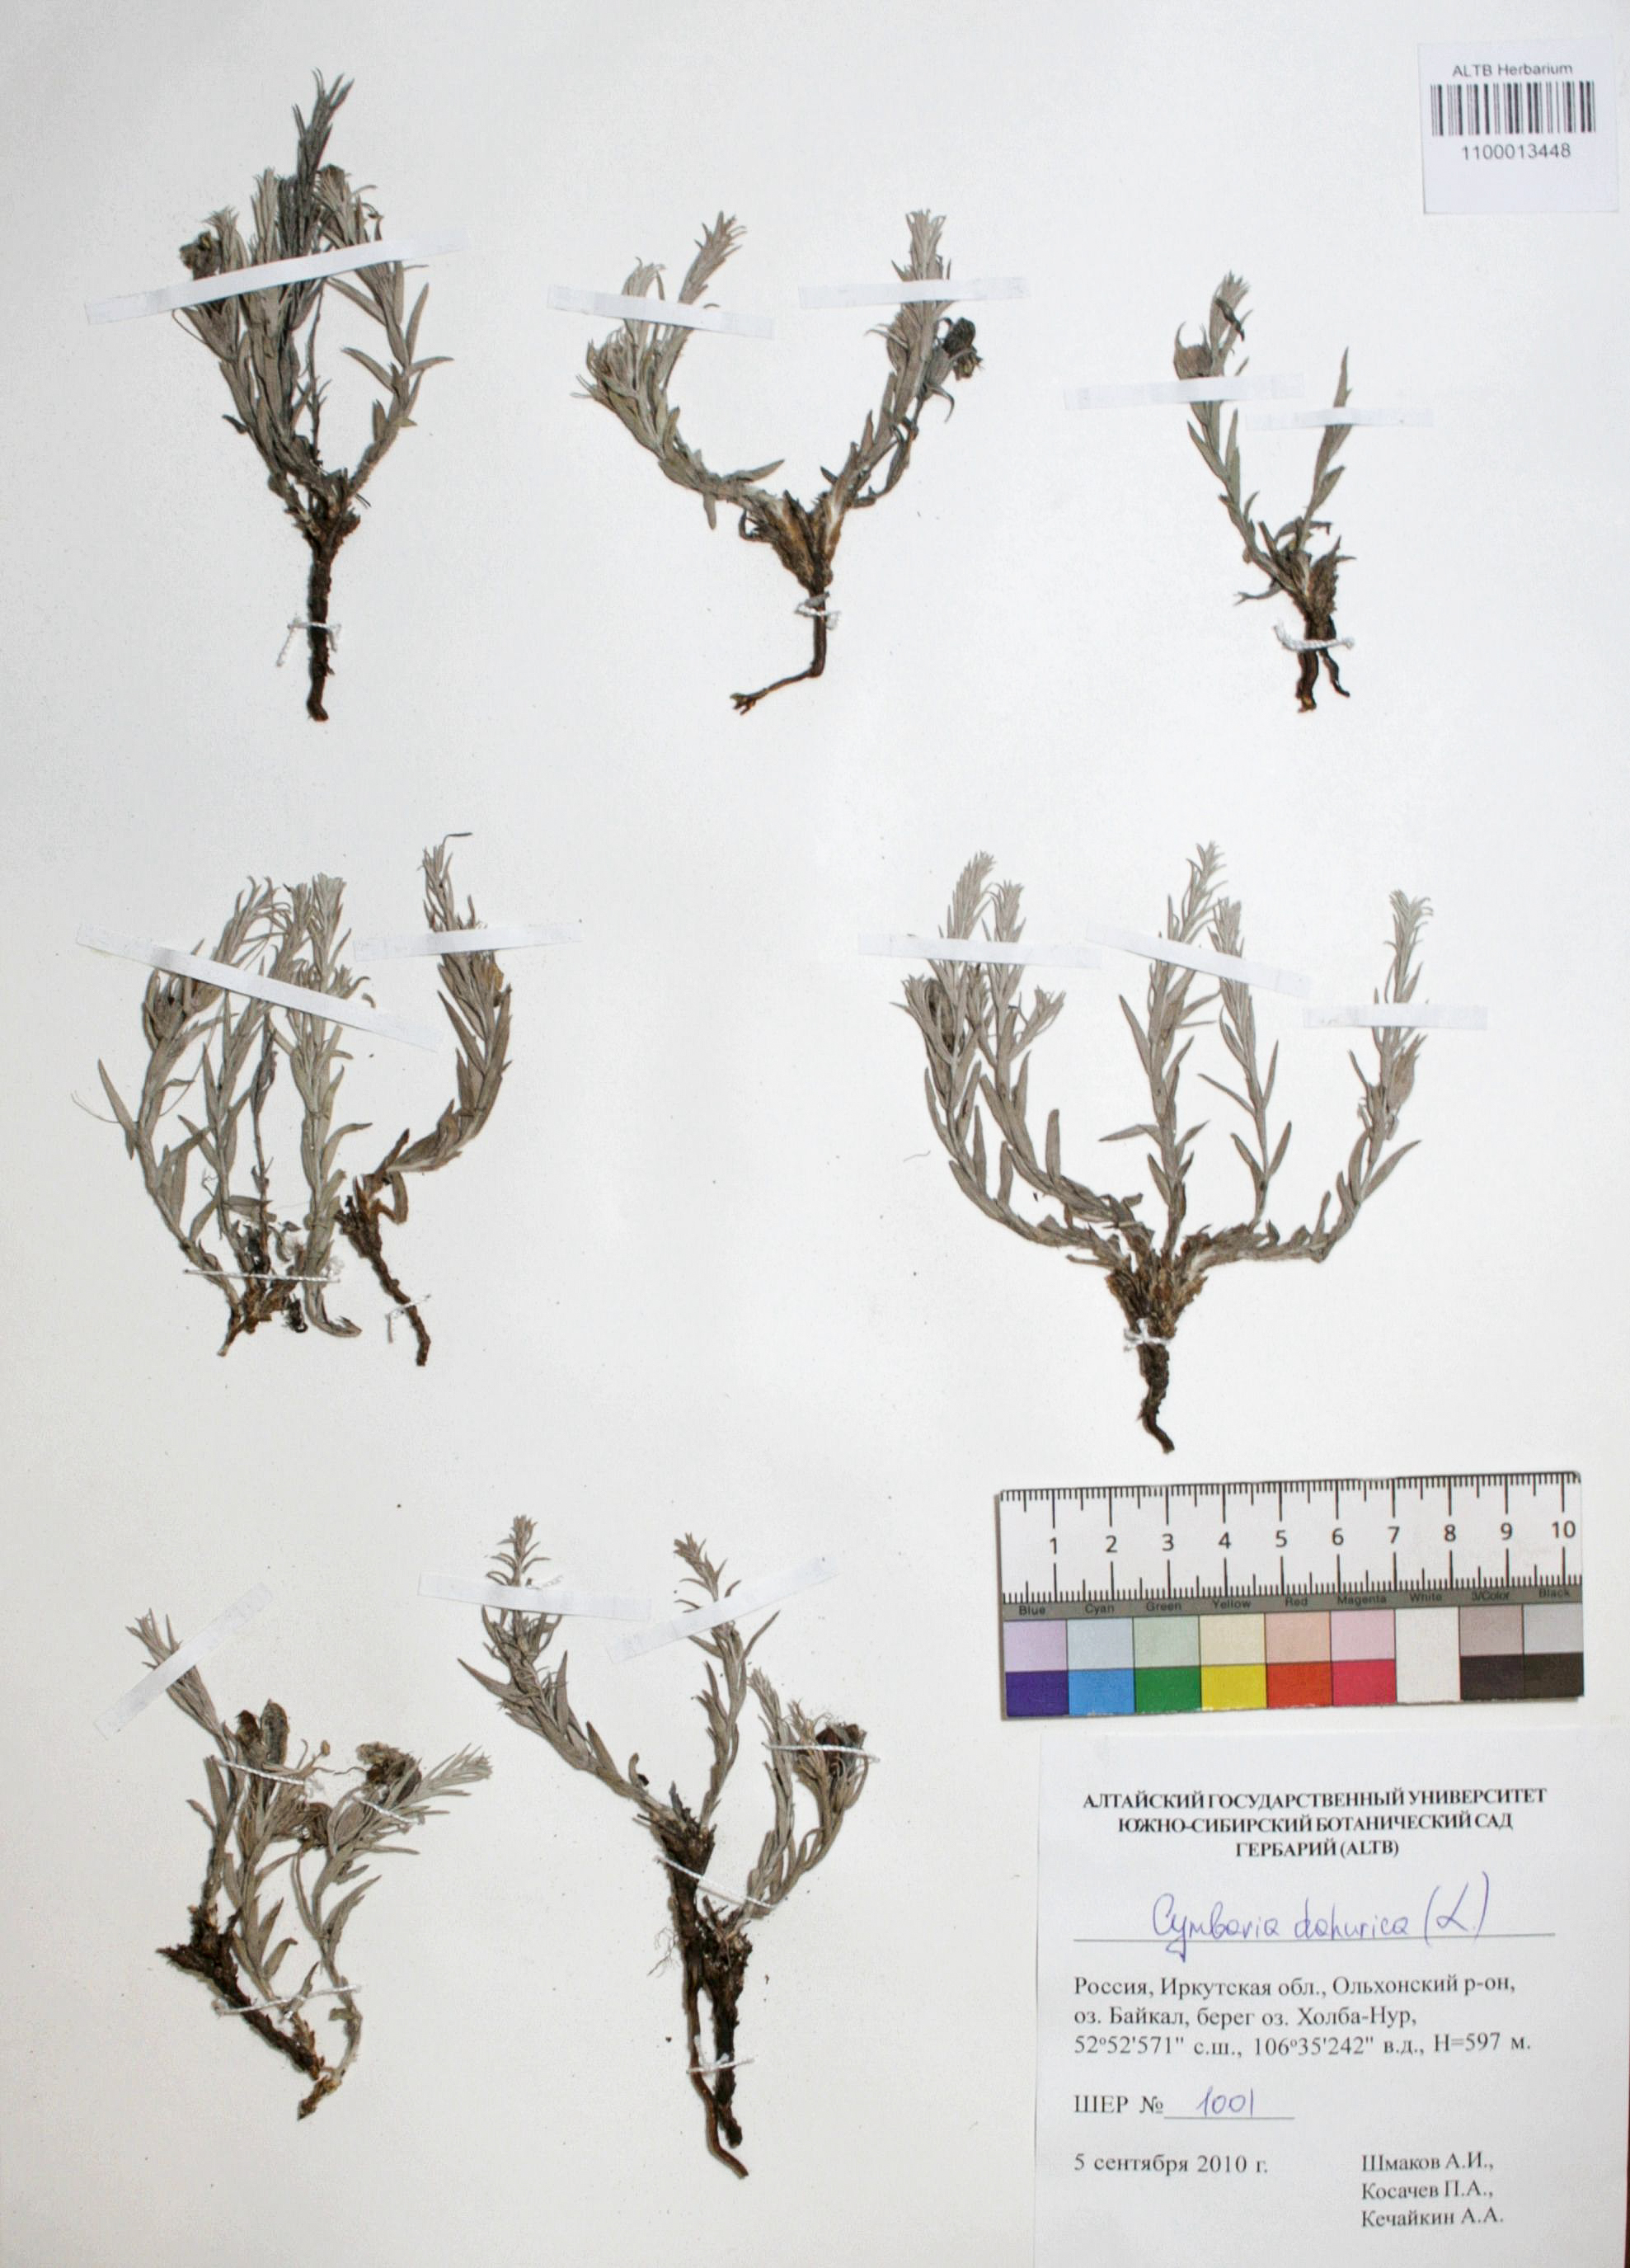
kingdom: Plantae
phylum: Tracheophyta
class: Magnoliopsida
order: Lamiales
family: Orobanchaceae
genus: Cymbaria
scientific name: Cymbaria daurica
